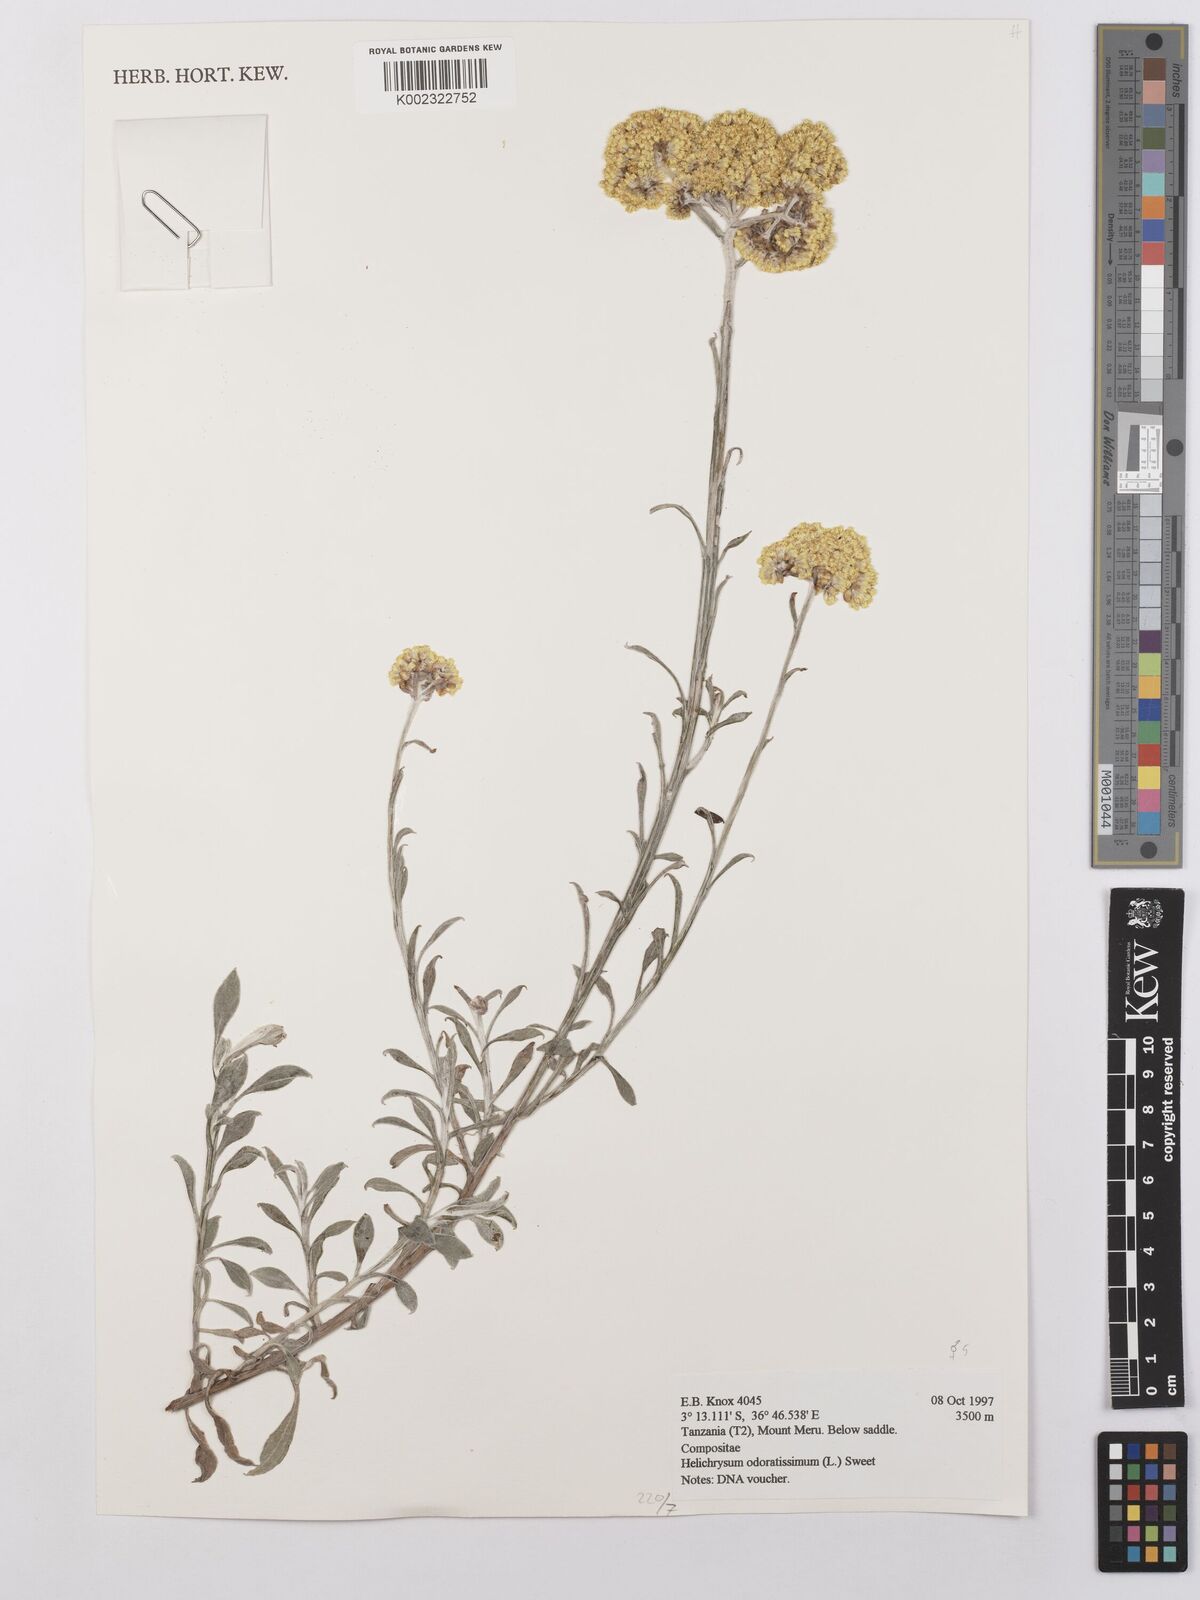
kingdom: Plantae
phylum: Tracheophyta
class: Magnoliopsida
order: Asterales
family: Asteraceae
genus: Helichrysum
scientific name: Helichrysum odoratissimum
